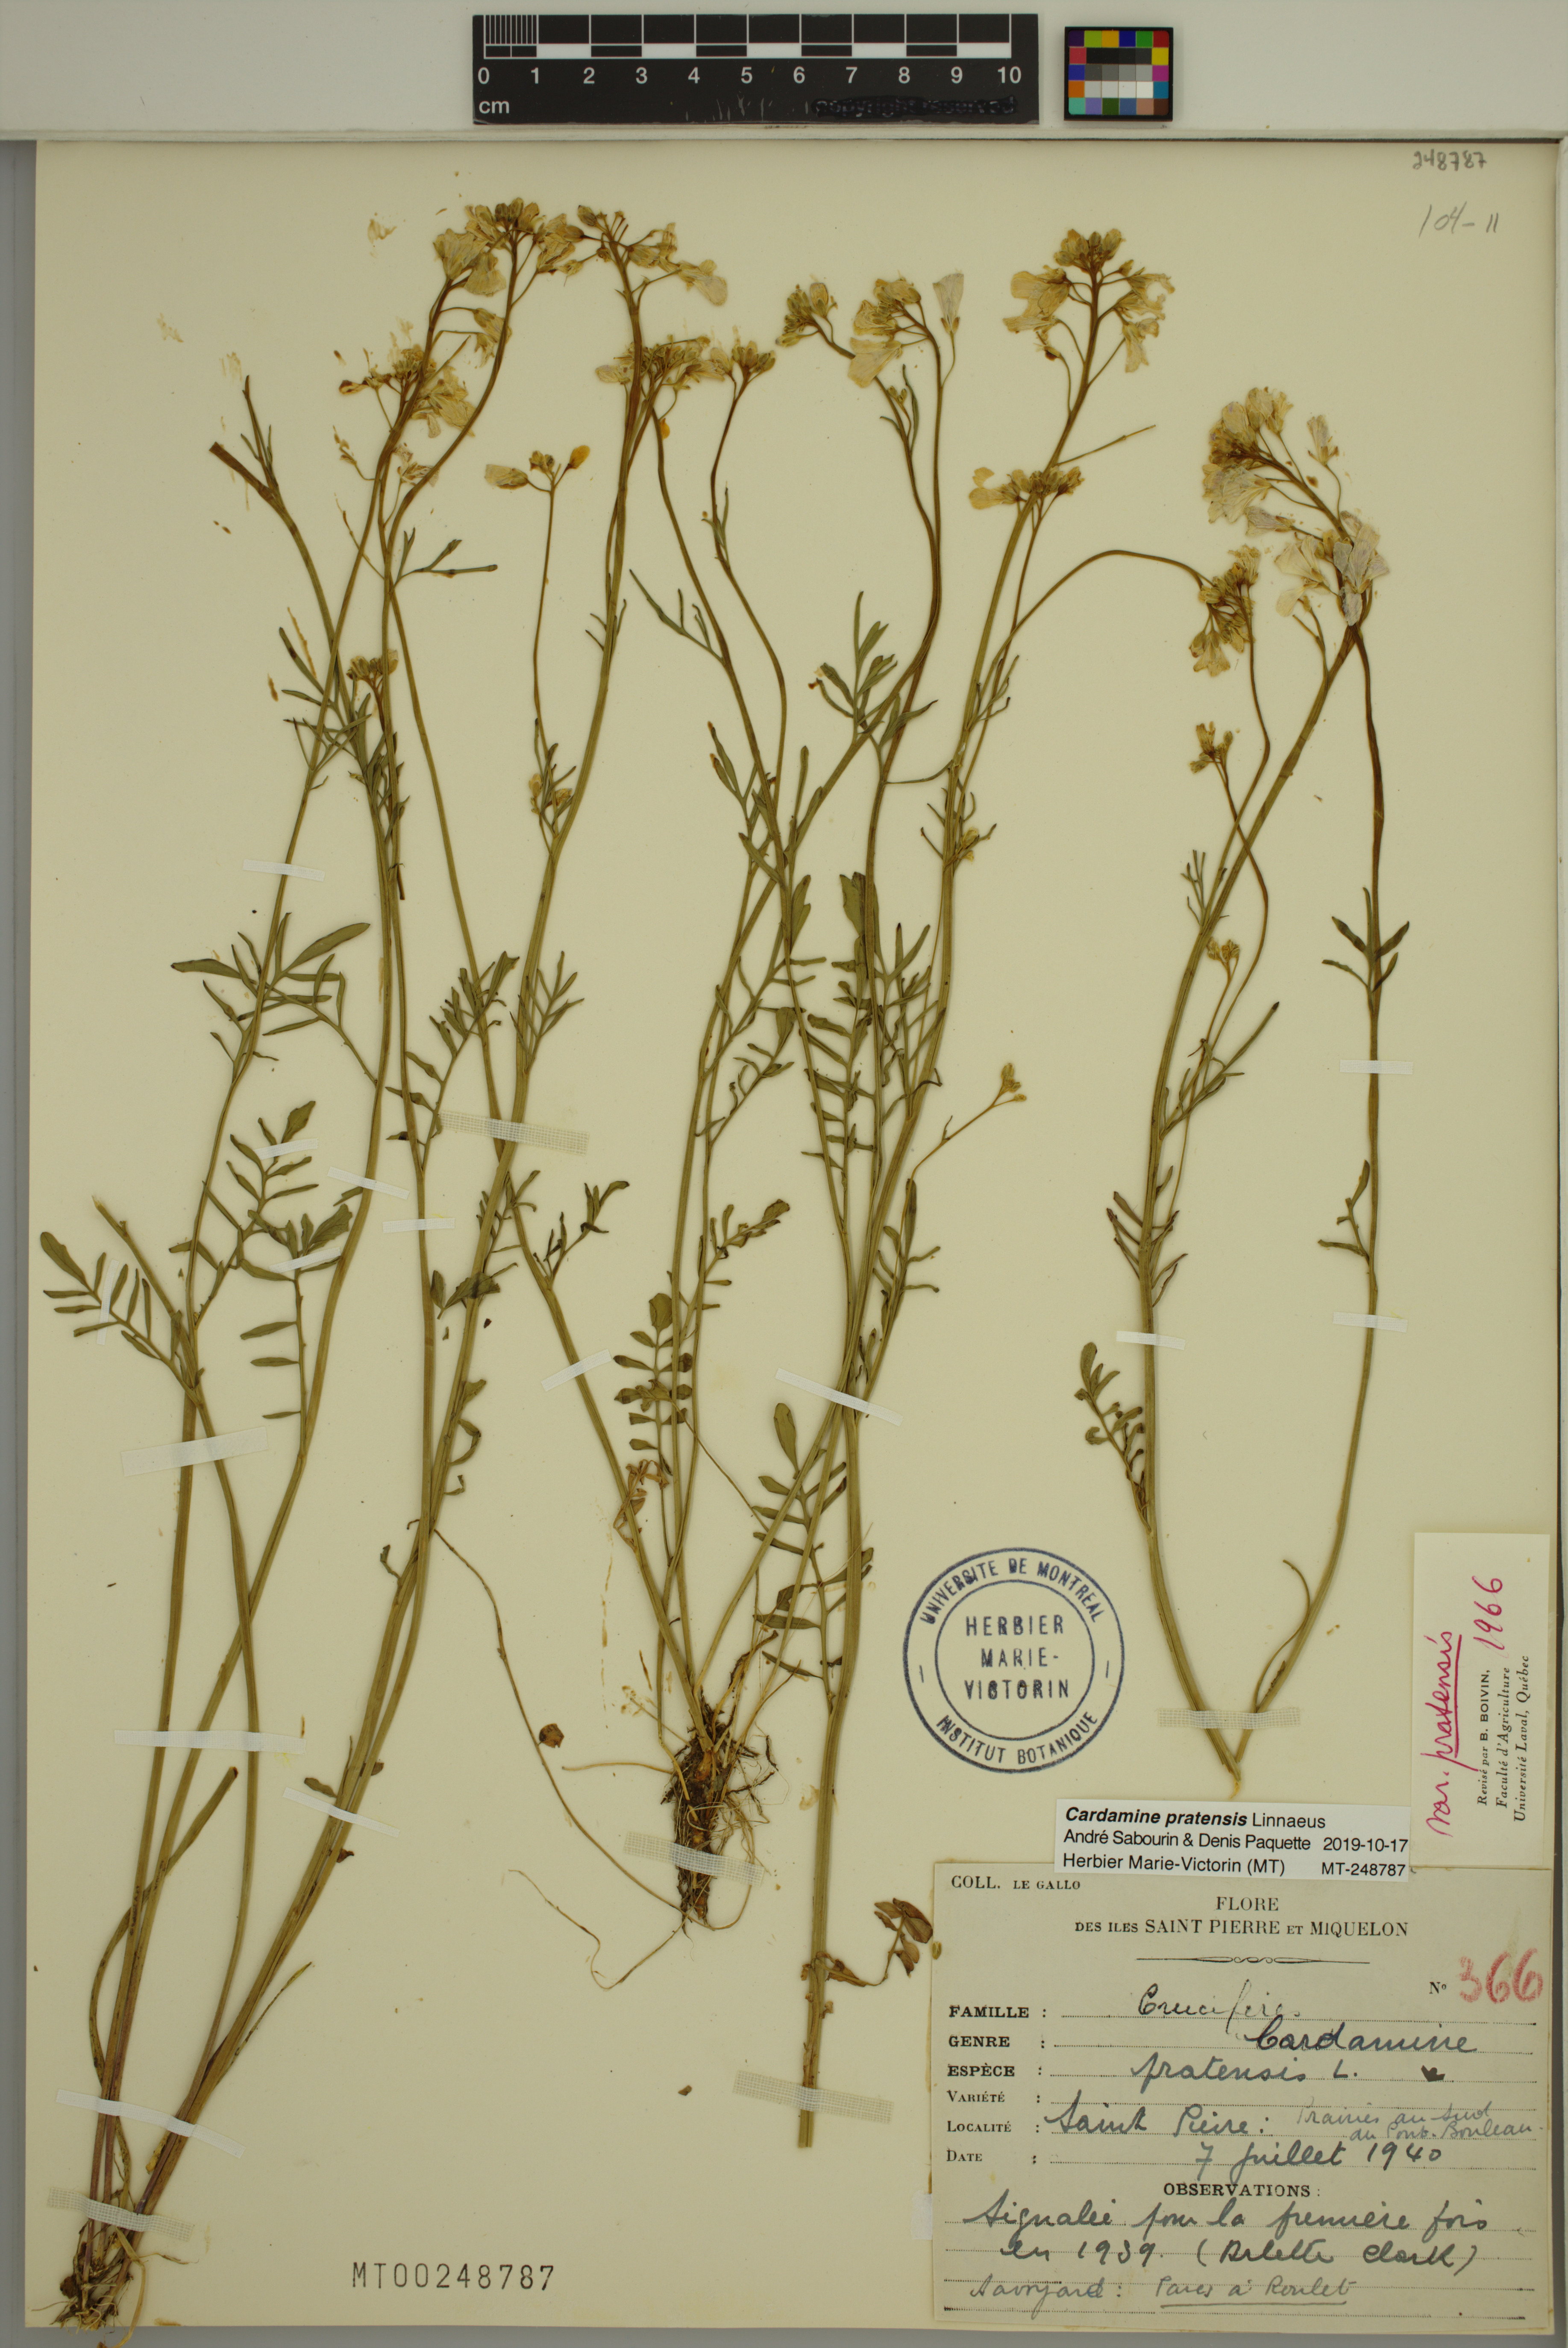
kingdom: Plantae
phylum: Tracheophyta
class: Magnoliopsida
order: Brassicales
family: Brassicaceae
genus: Cardamine
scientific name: Cardamine pratensis
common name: Cuckoo flower
